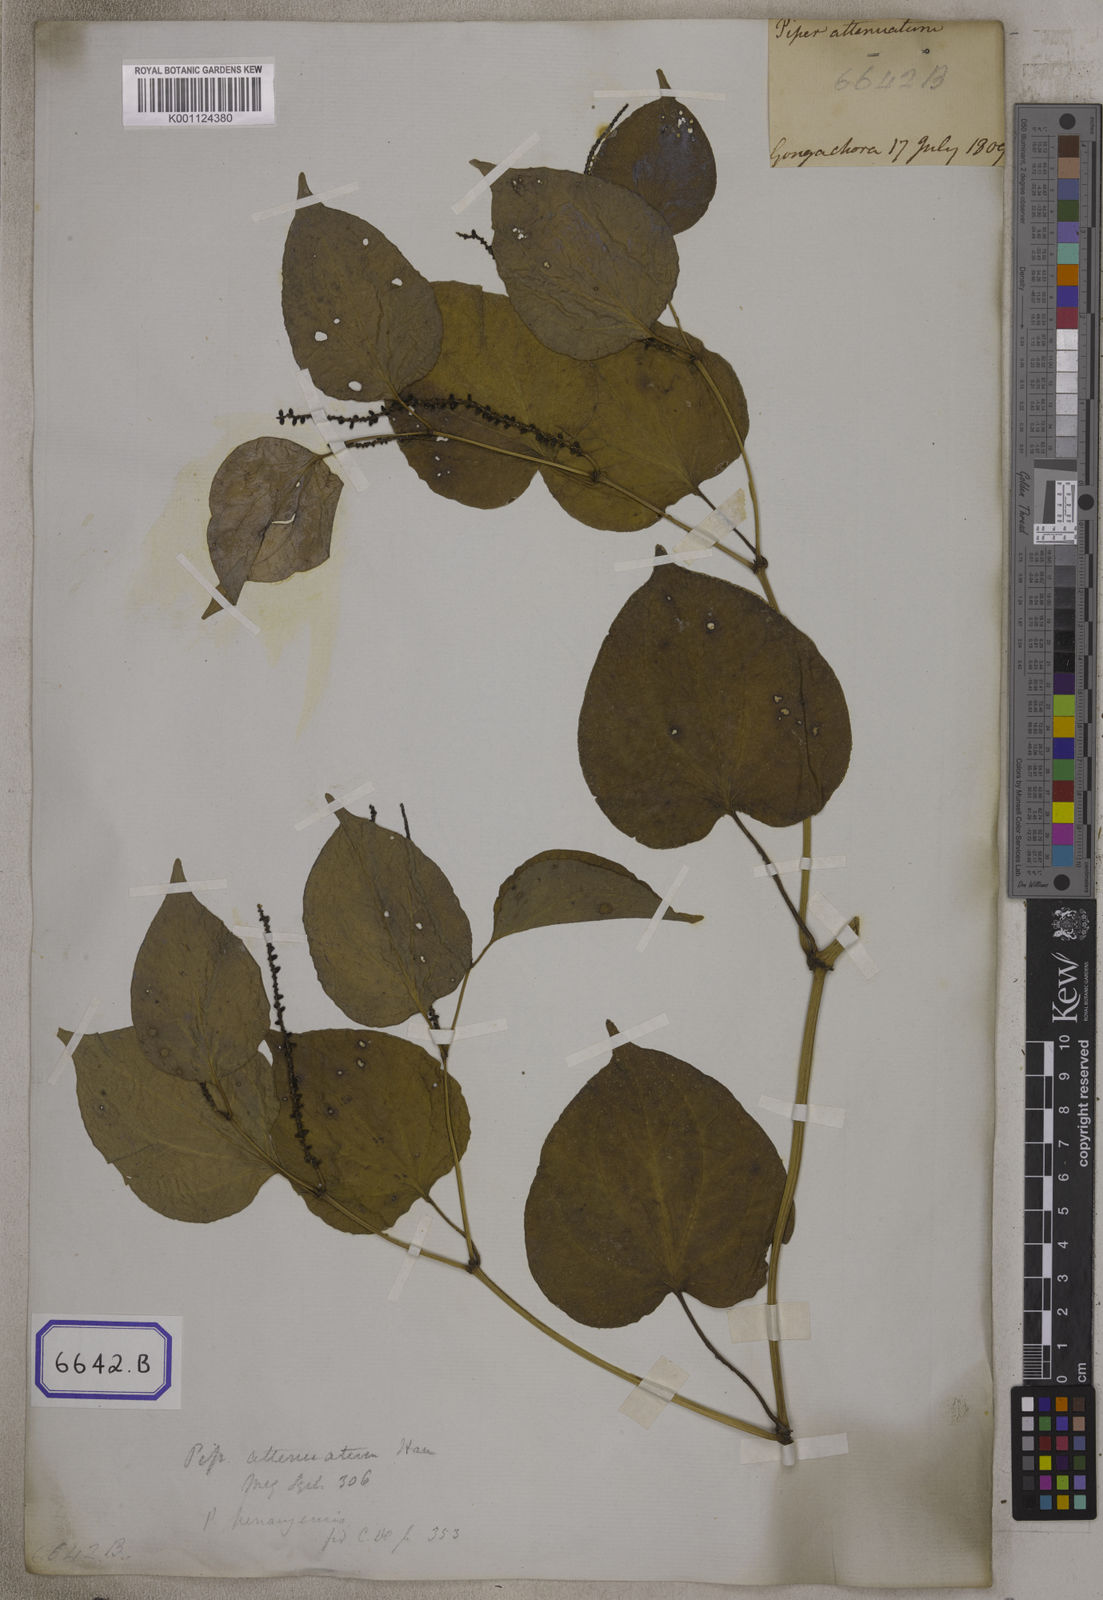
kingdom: Plantae
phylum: Tracheophyta
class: Magnoliopsida
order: Piperales
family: Piperaceae
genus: Piper
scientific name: Piper
